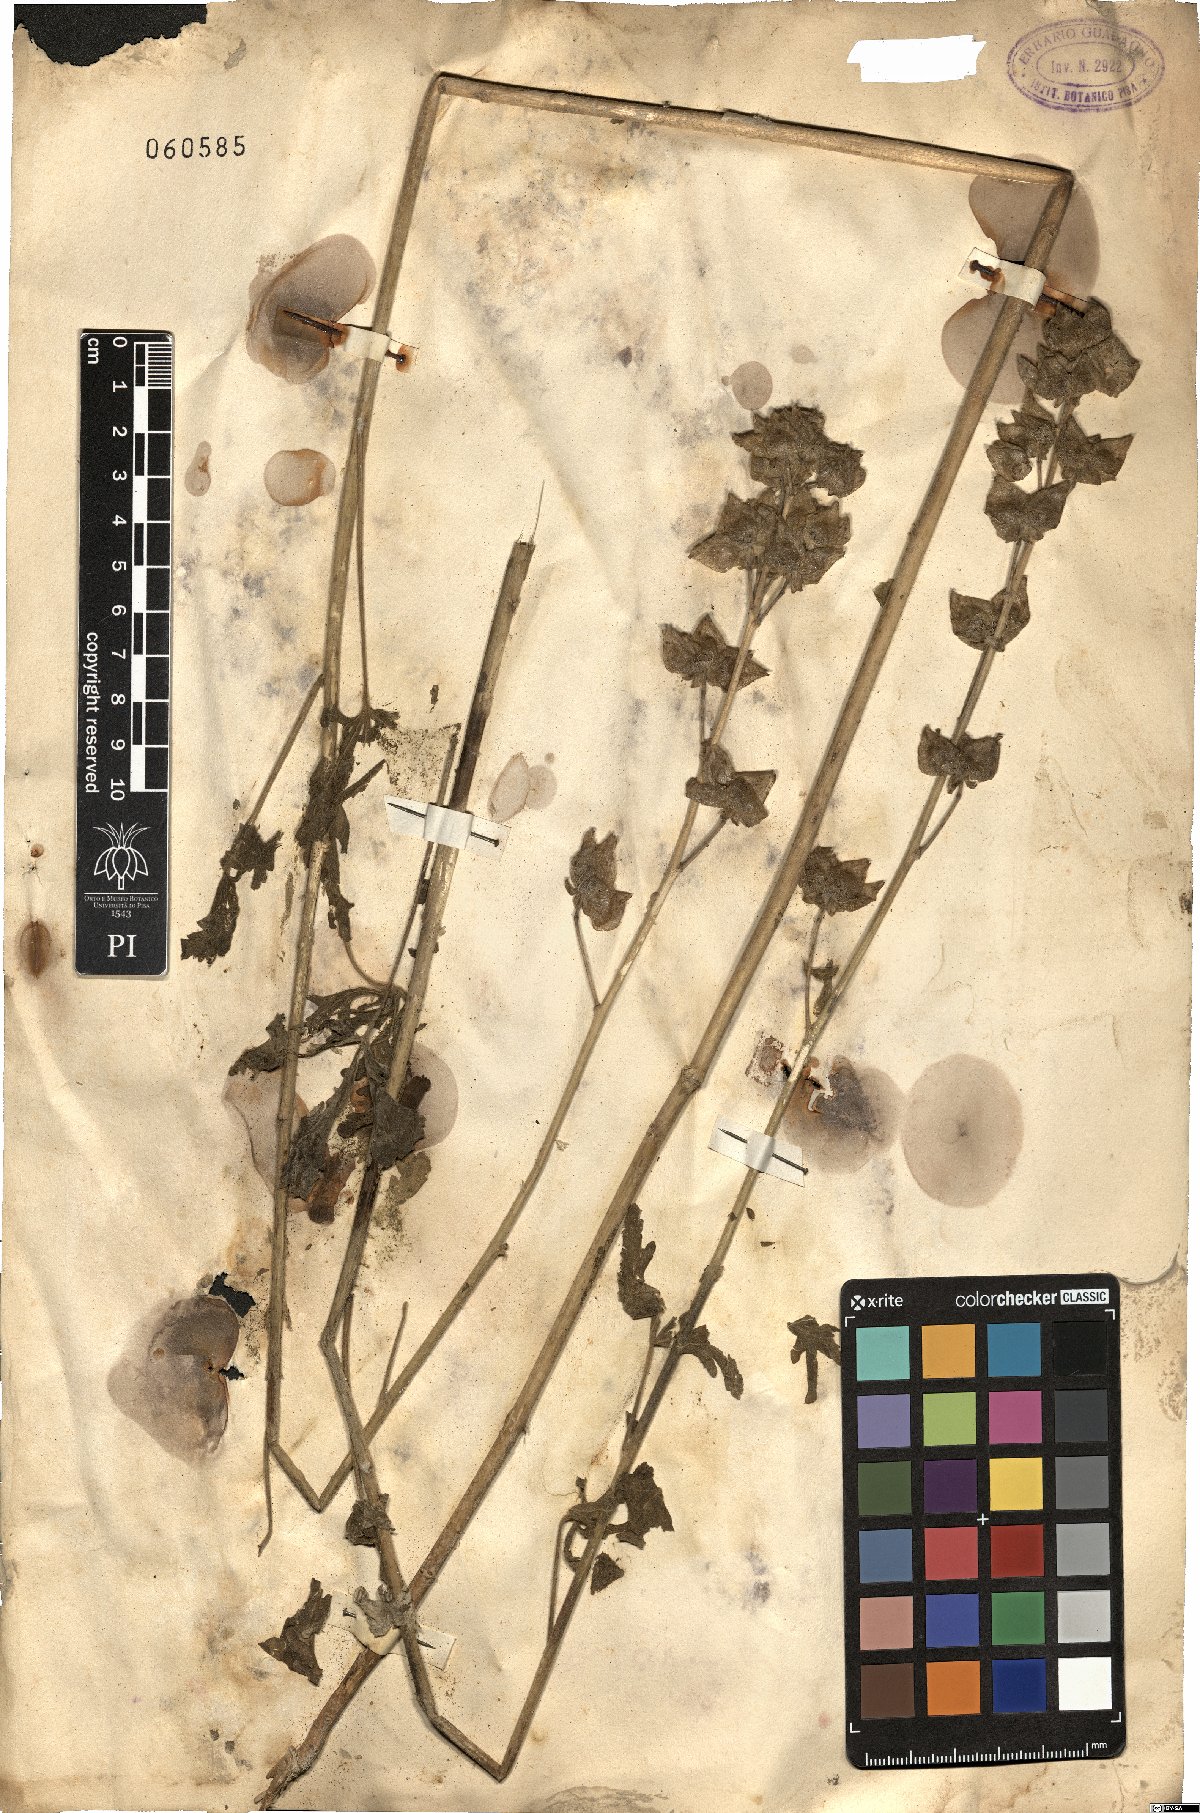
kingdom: Plantae
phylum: Tracheophyta
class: Magnoliopsida
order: Malvales
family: Malvaceae
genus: Malva
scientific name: Malva
